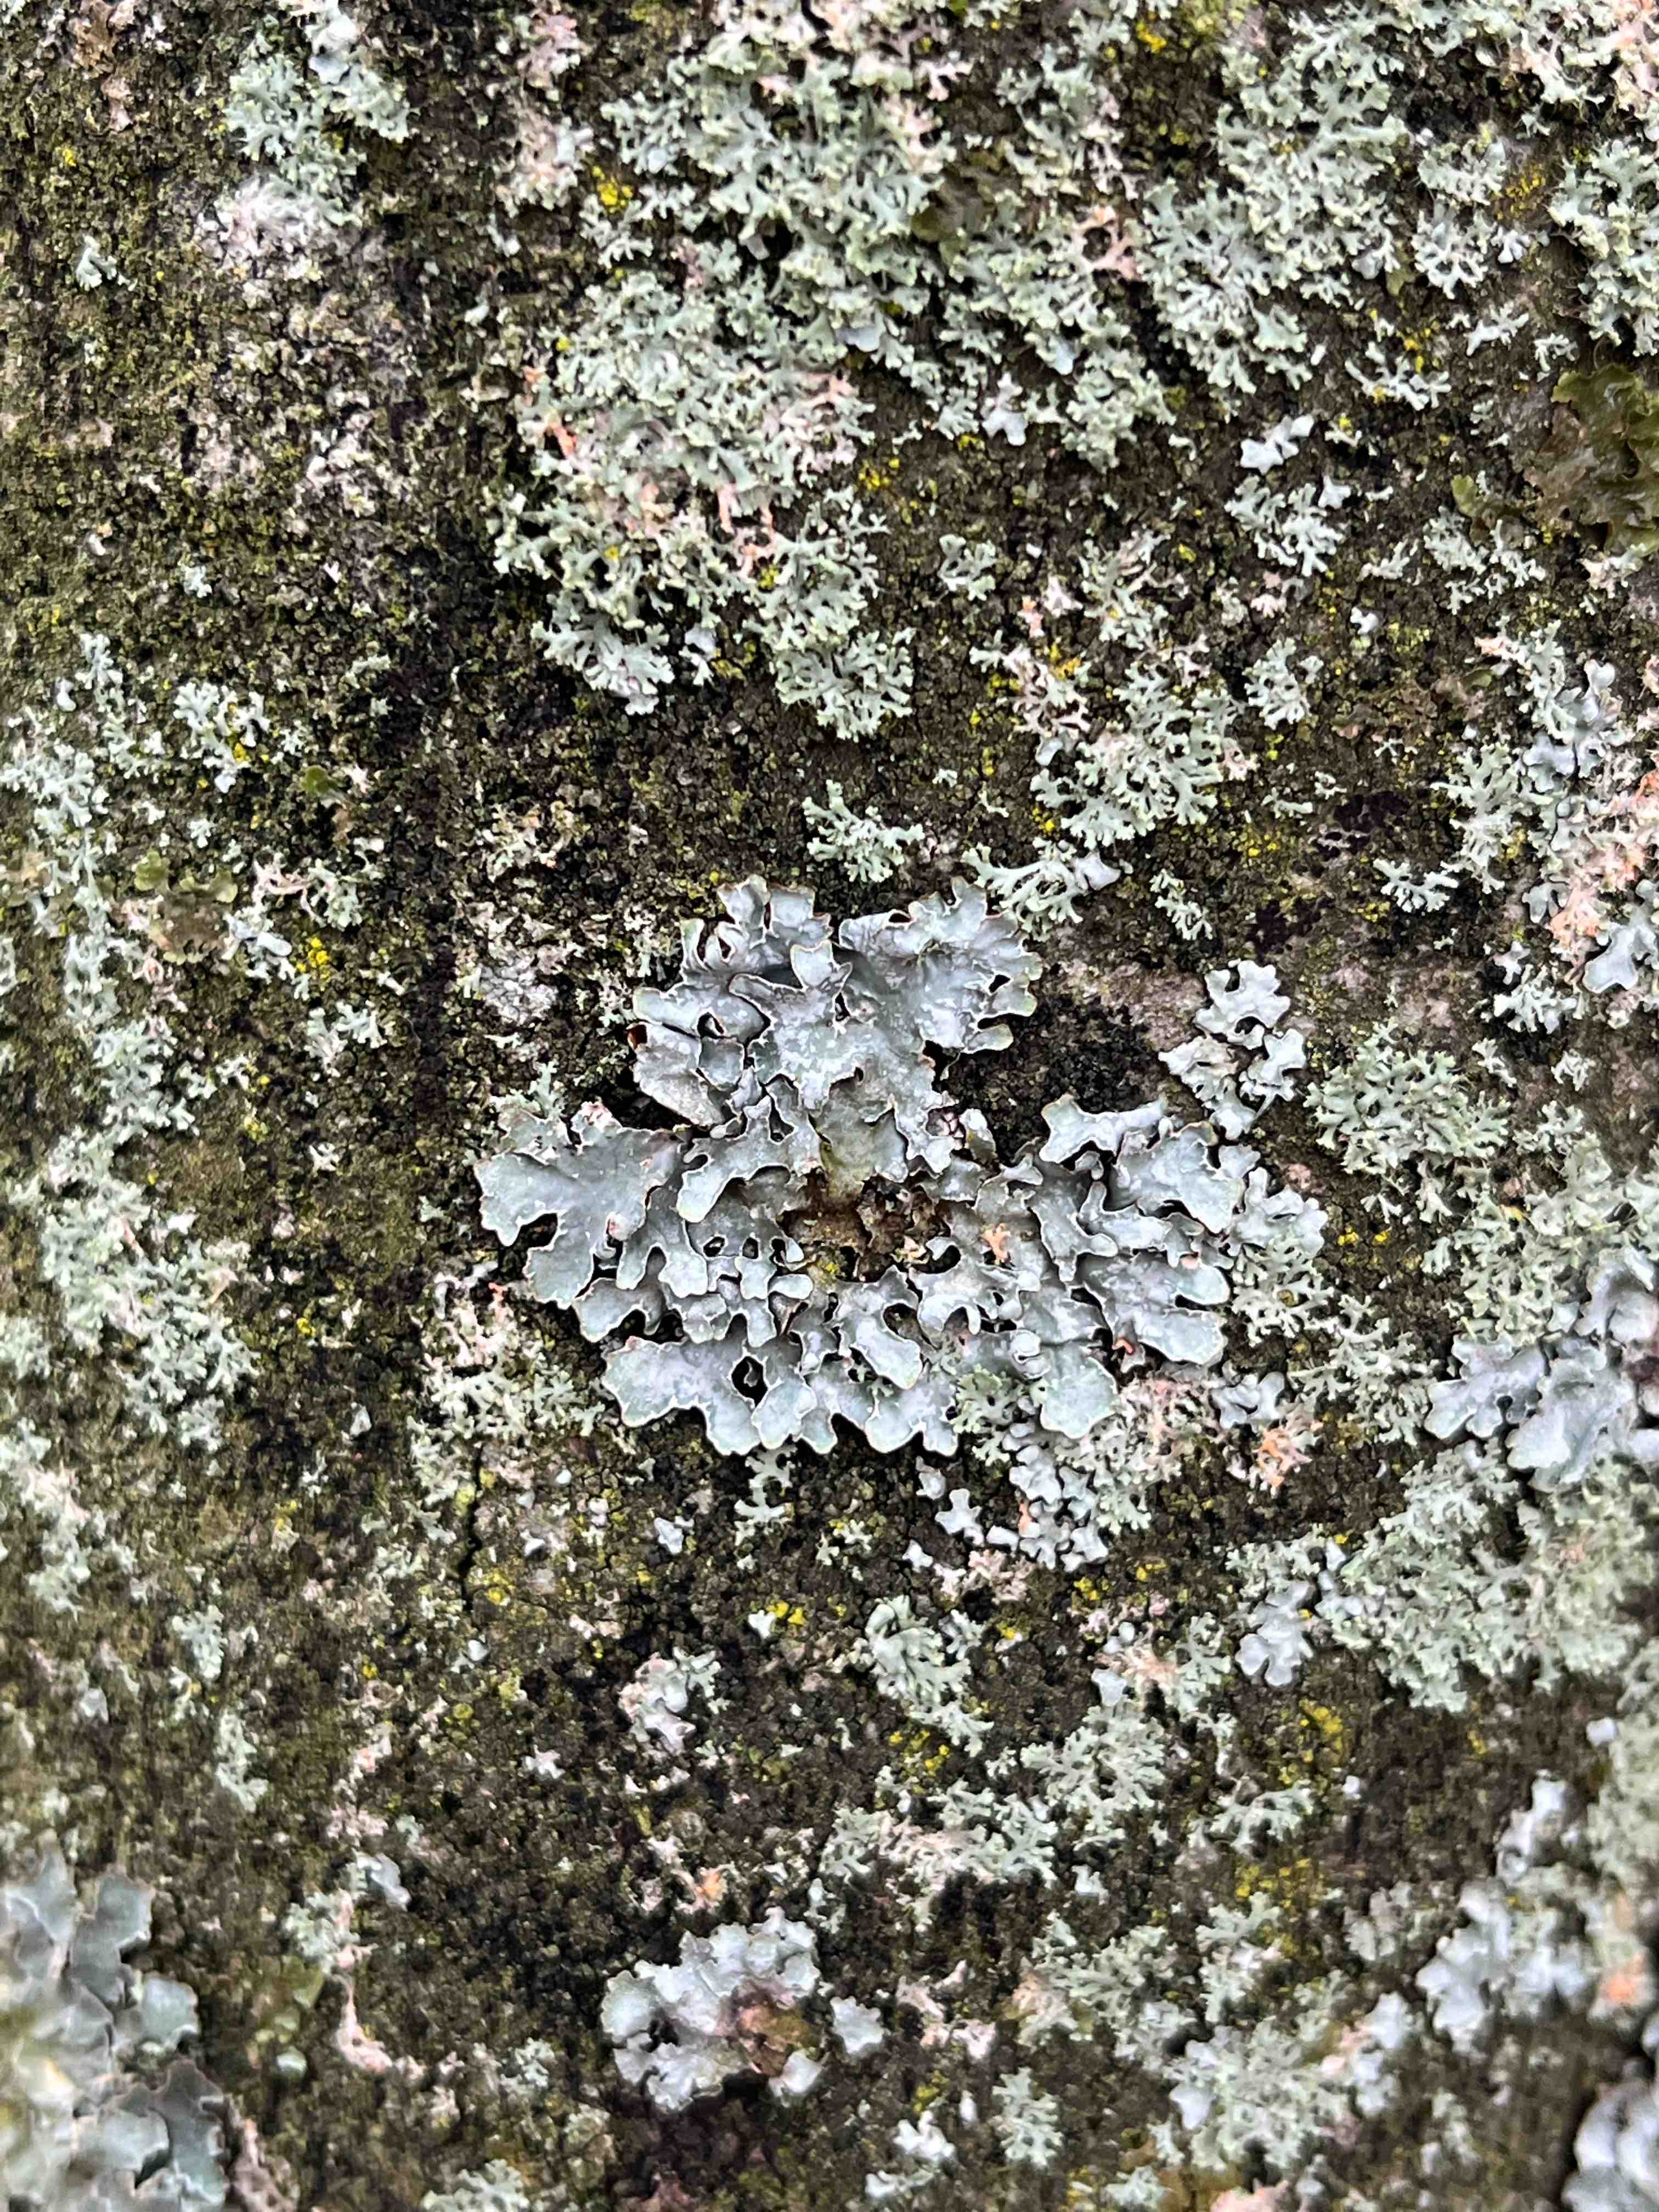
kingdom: Fungi
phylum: Ascomycota
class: Lecanoromycetes
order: Lecanorales
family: Parmeliaceae
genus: Parmelia
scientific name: Parmelia sulcata
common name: rynket skållav
